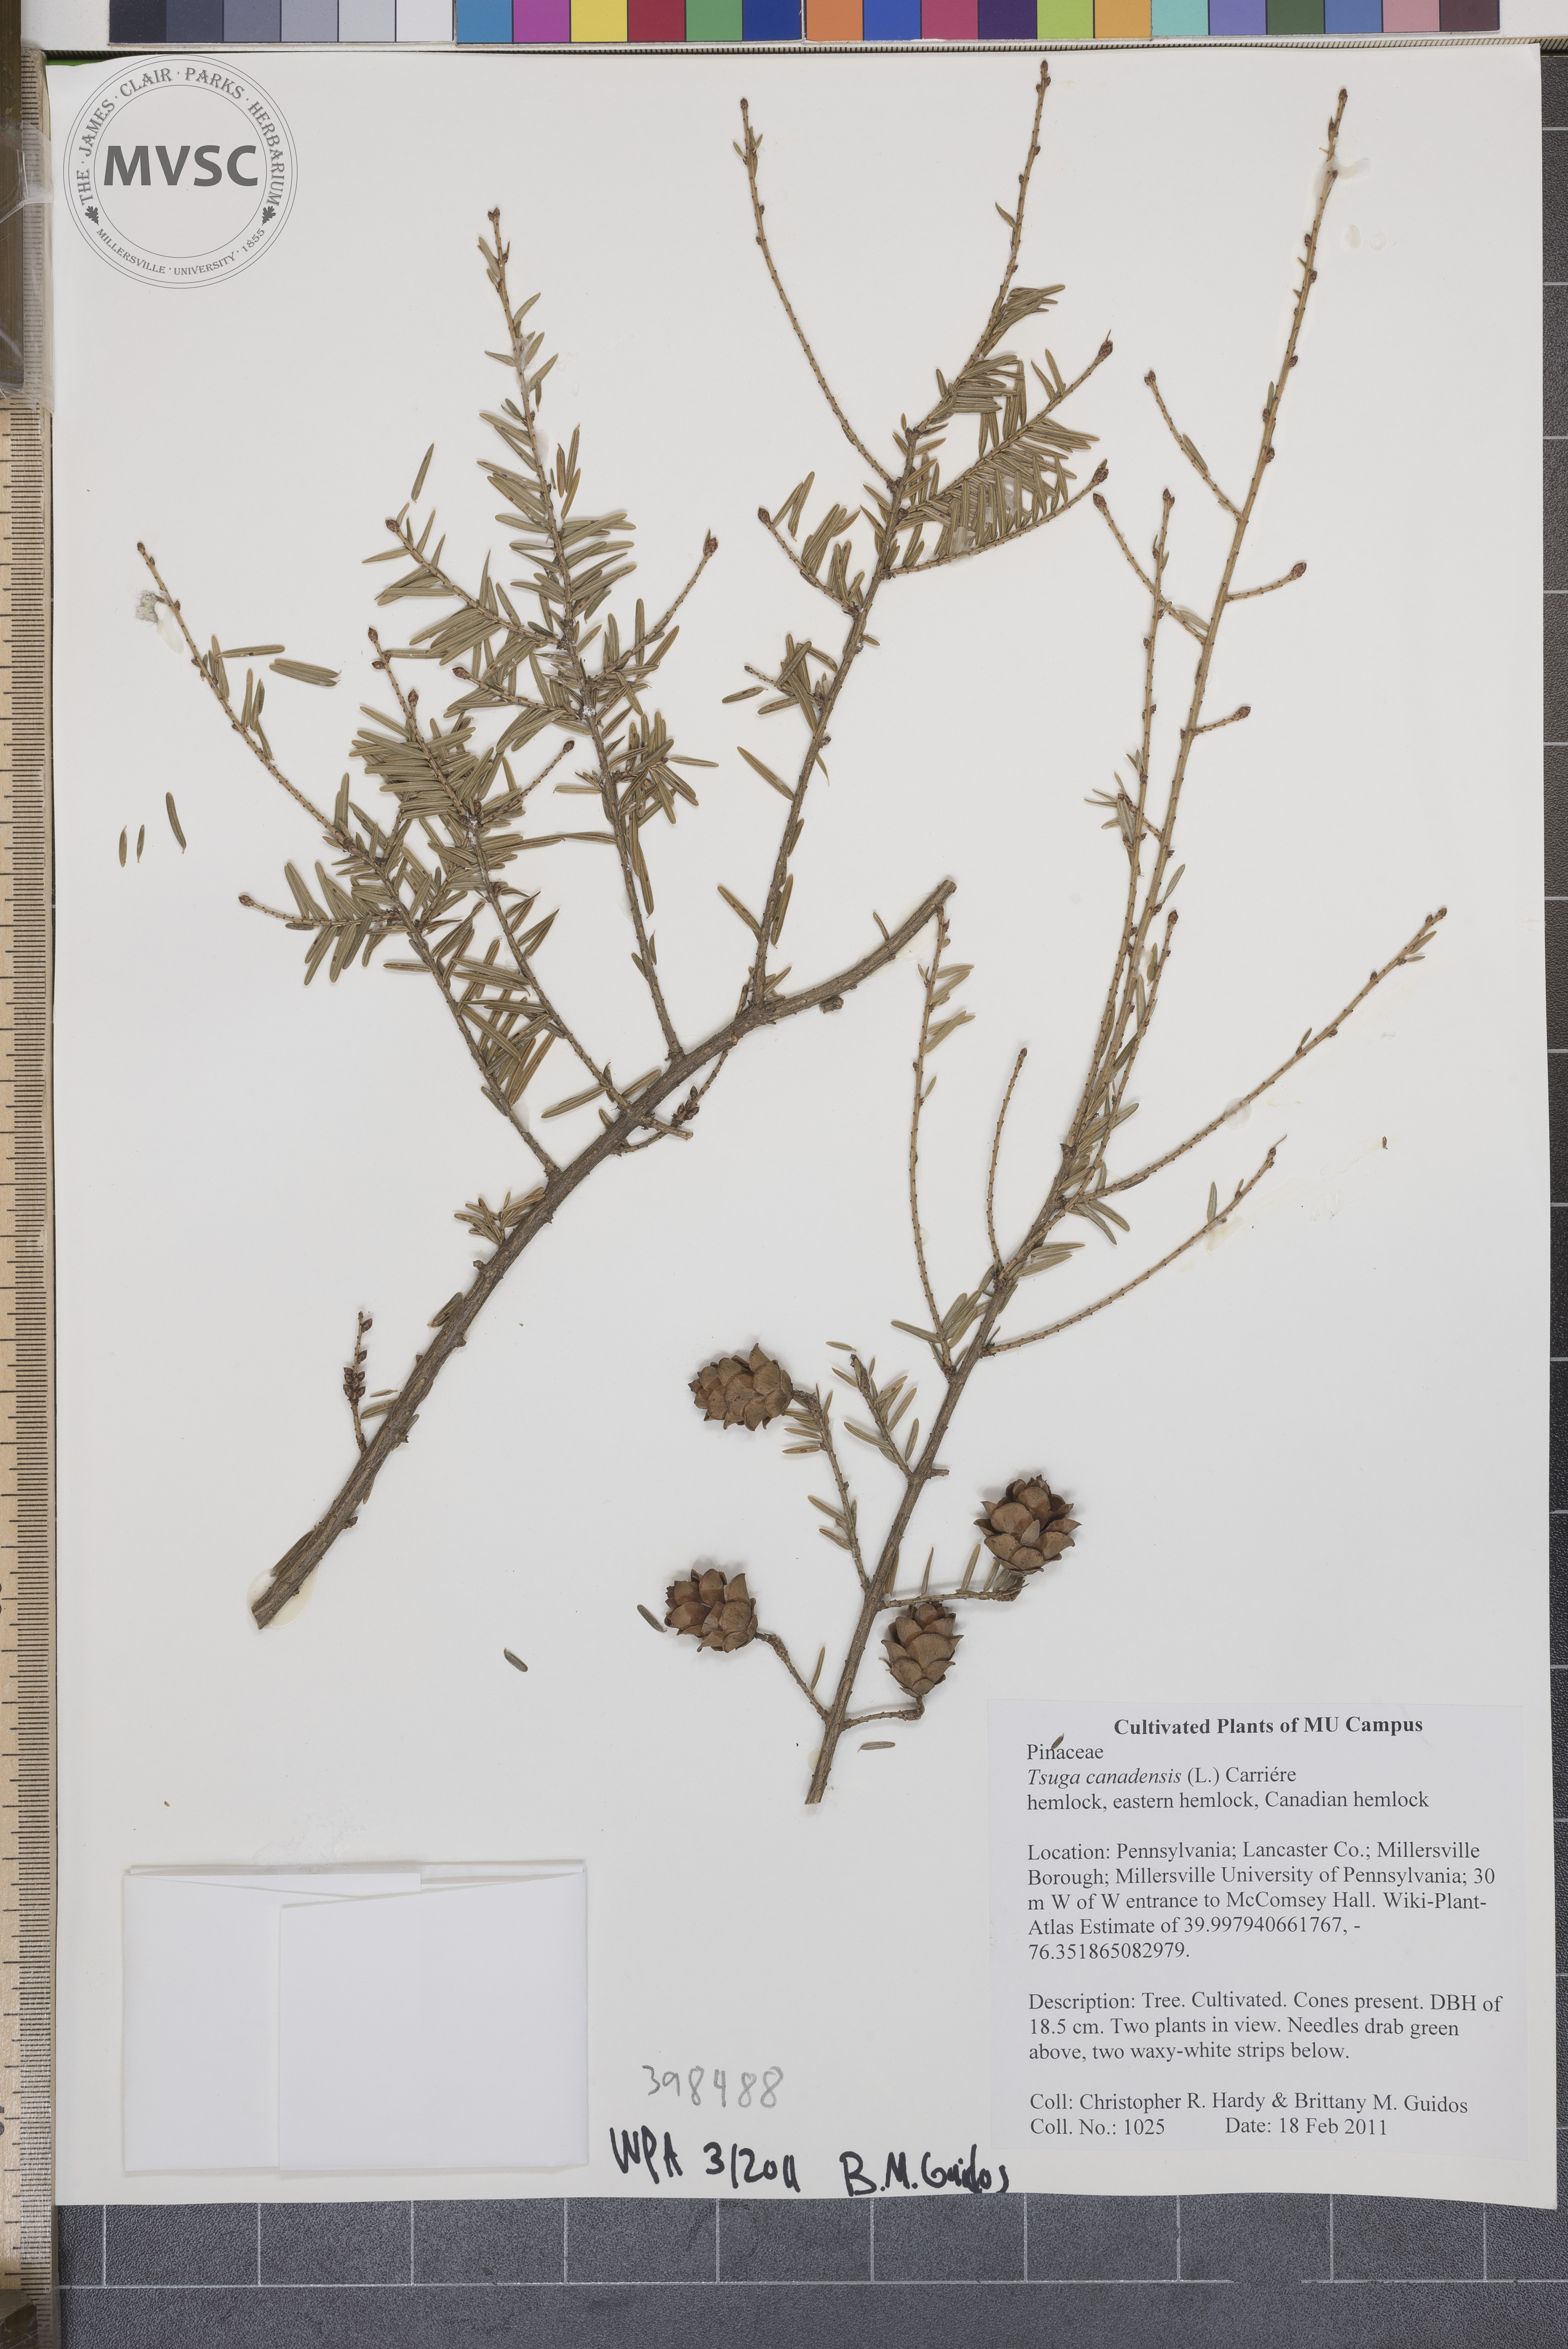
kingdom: Plantae
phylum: Tracheophyta
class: Pinopsida
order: Pinales
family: Pinaceae
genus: Tsuga
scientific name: Tsuga canadensis
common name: Canada hemlock
